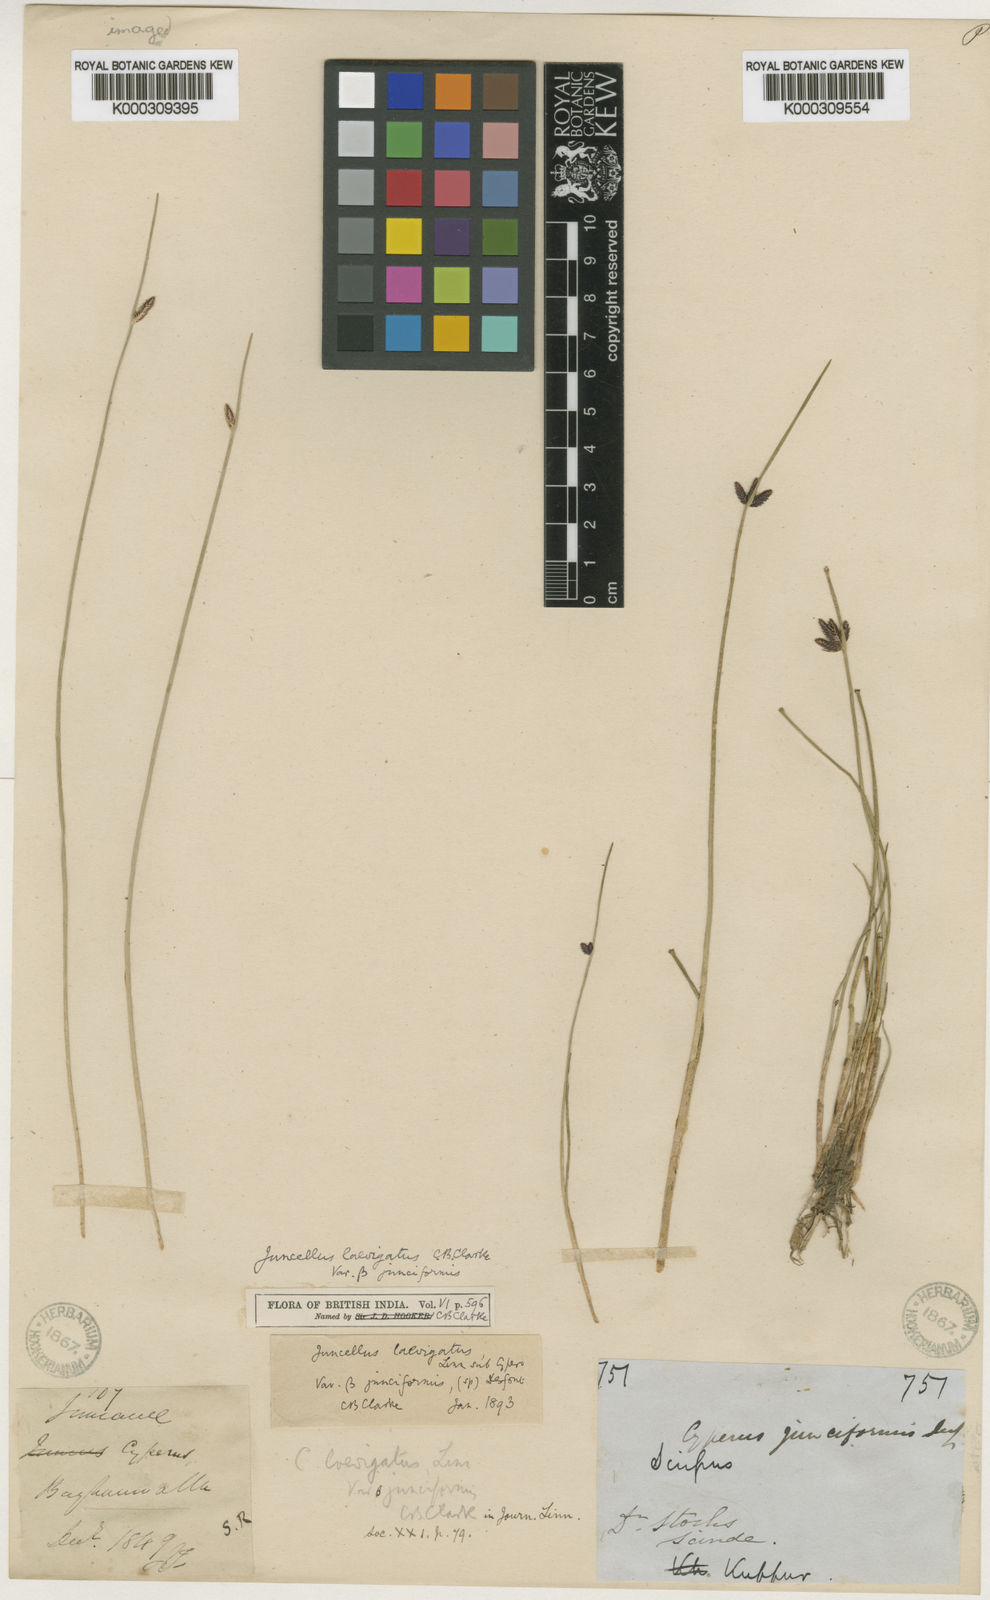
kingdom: Plantae
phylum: Tracheophyta
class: Liliopsida
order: Poales
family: Cyperaceae
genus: Cyperus
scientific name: Cyperus laevigatus
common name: Smooth flat sedge
